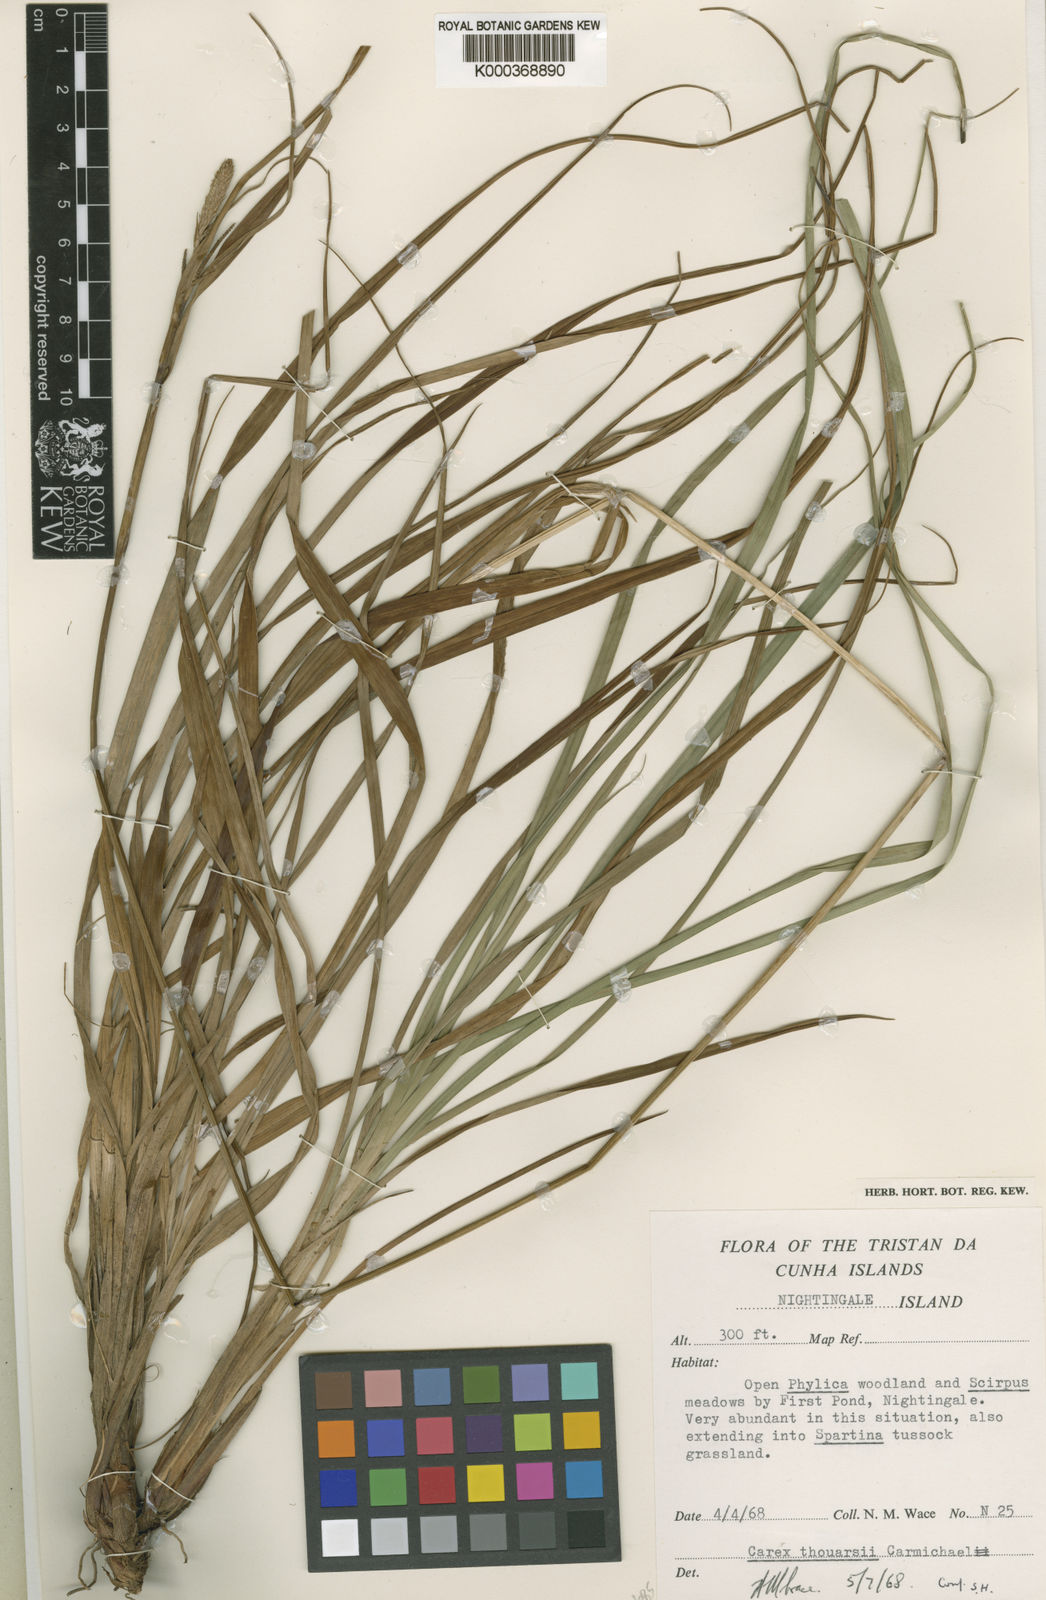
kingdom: Plantae
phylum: Tracheophyta
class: Liliopsida
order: Poales
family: Cyperaceae
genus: Carex
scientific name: Carex thouarsii
